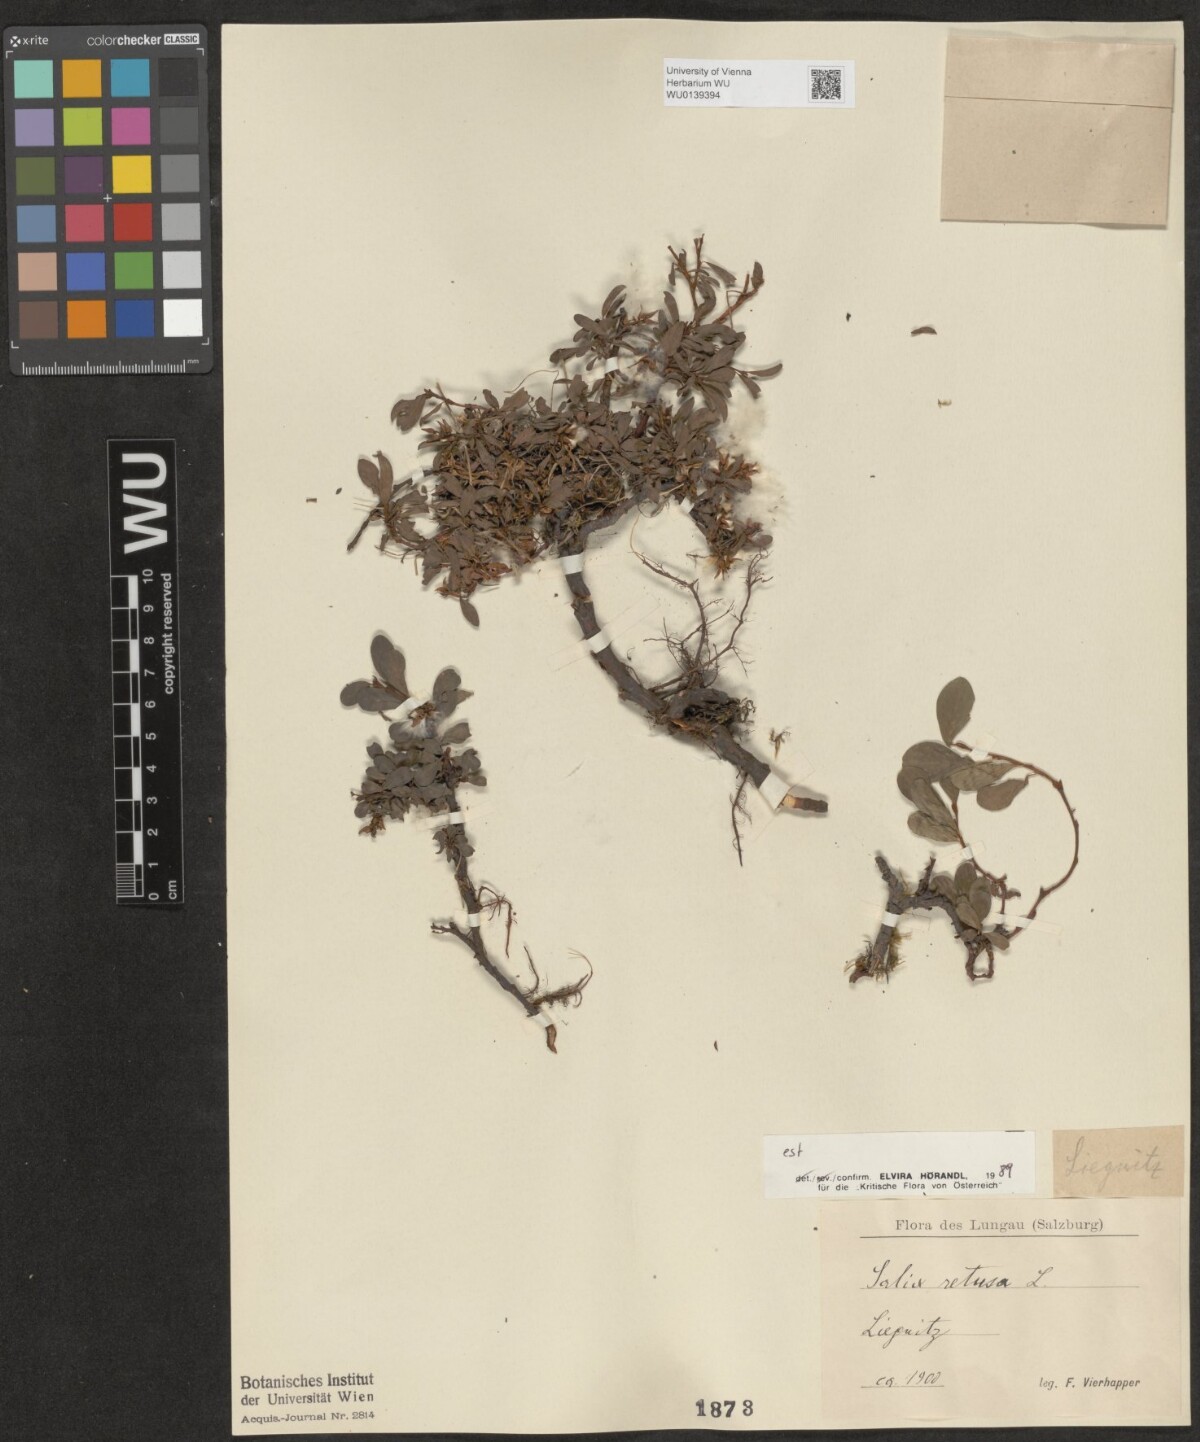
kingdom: Plantae
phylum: Tracheophyta
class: Magnoliopsida
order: Malpighiales
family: Salicaceae
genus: Salix
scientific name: Salix retusa
